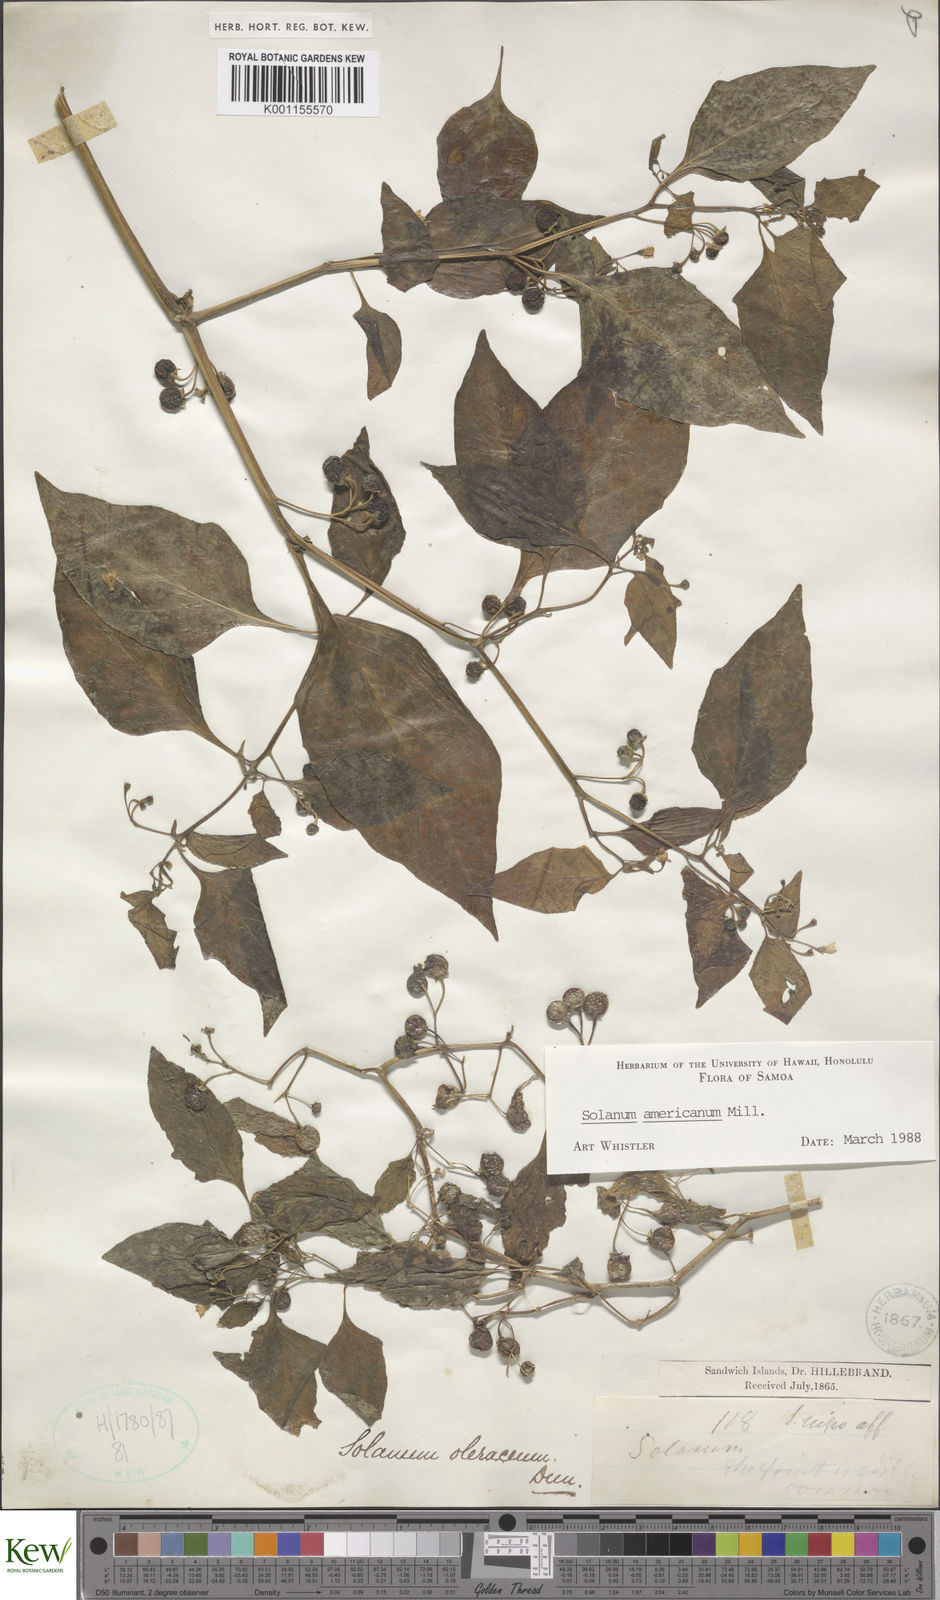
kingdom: Plantae
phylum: Tracheophyta
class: Magnoliopsida
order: Solanales
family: Solanaceae
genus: Solanum
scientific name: Solanum
